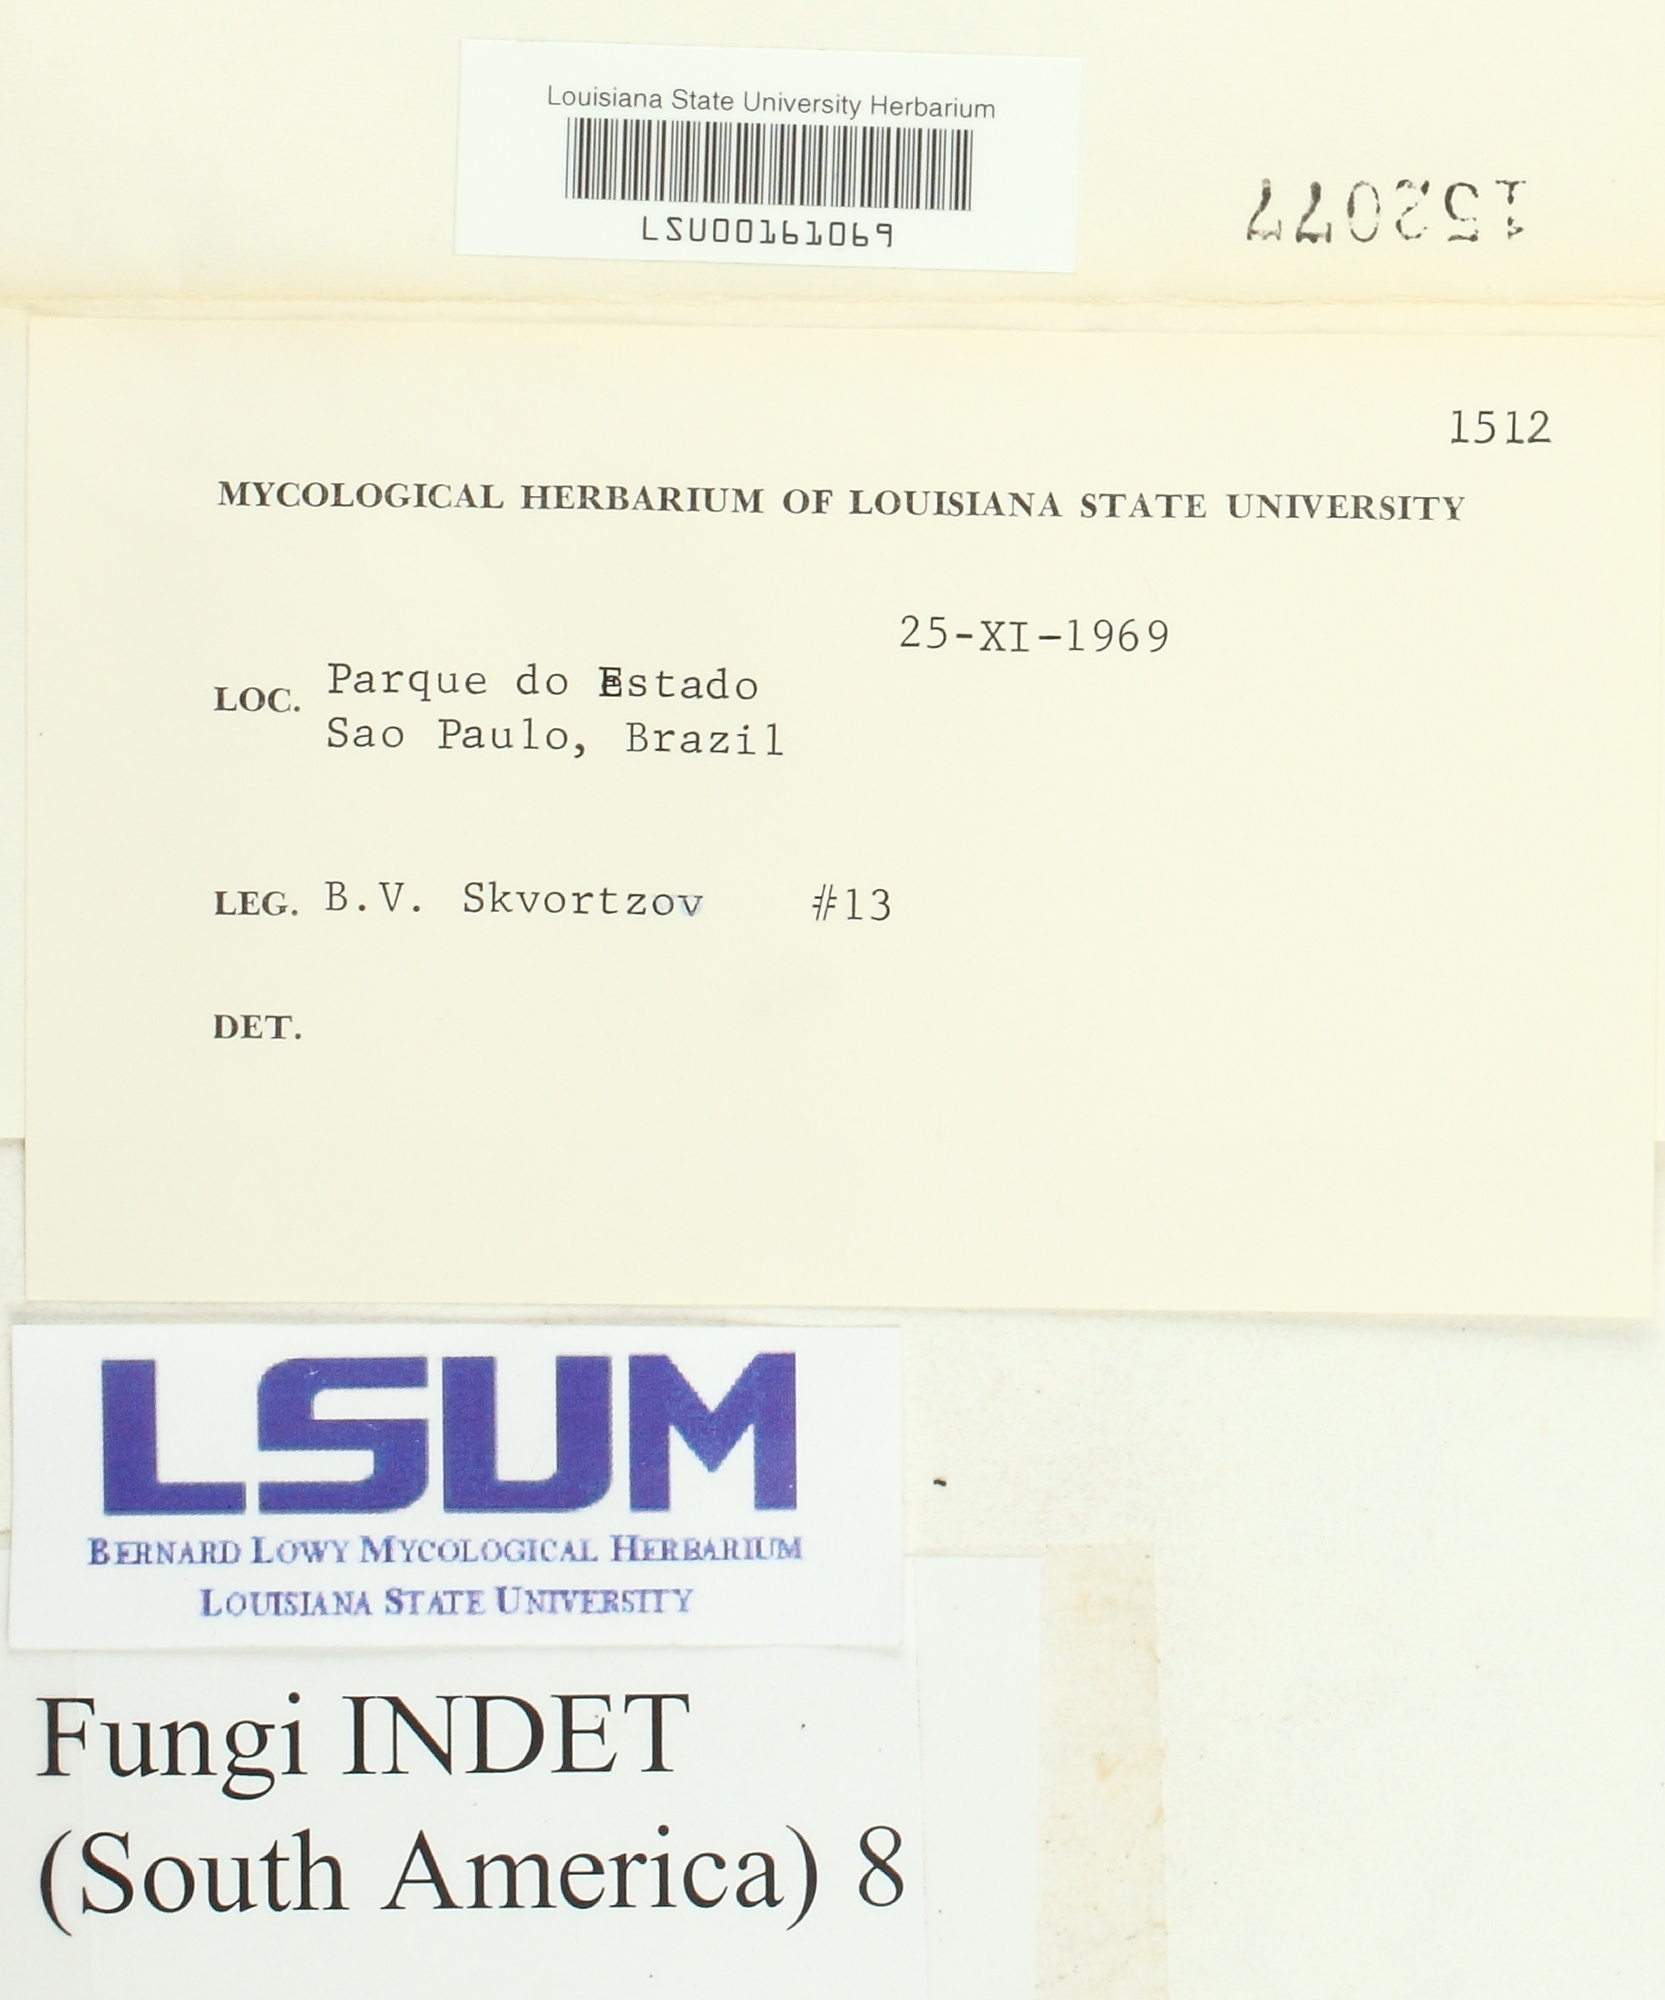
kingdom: Fungi
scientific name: Fungi
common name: Fungi
